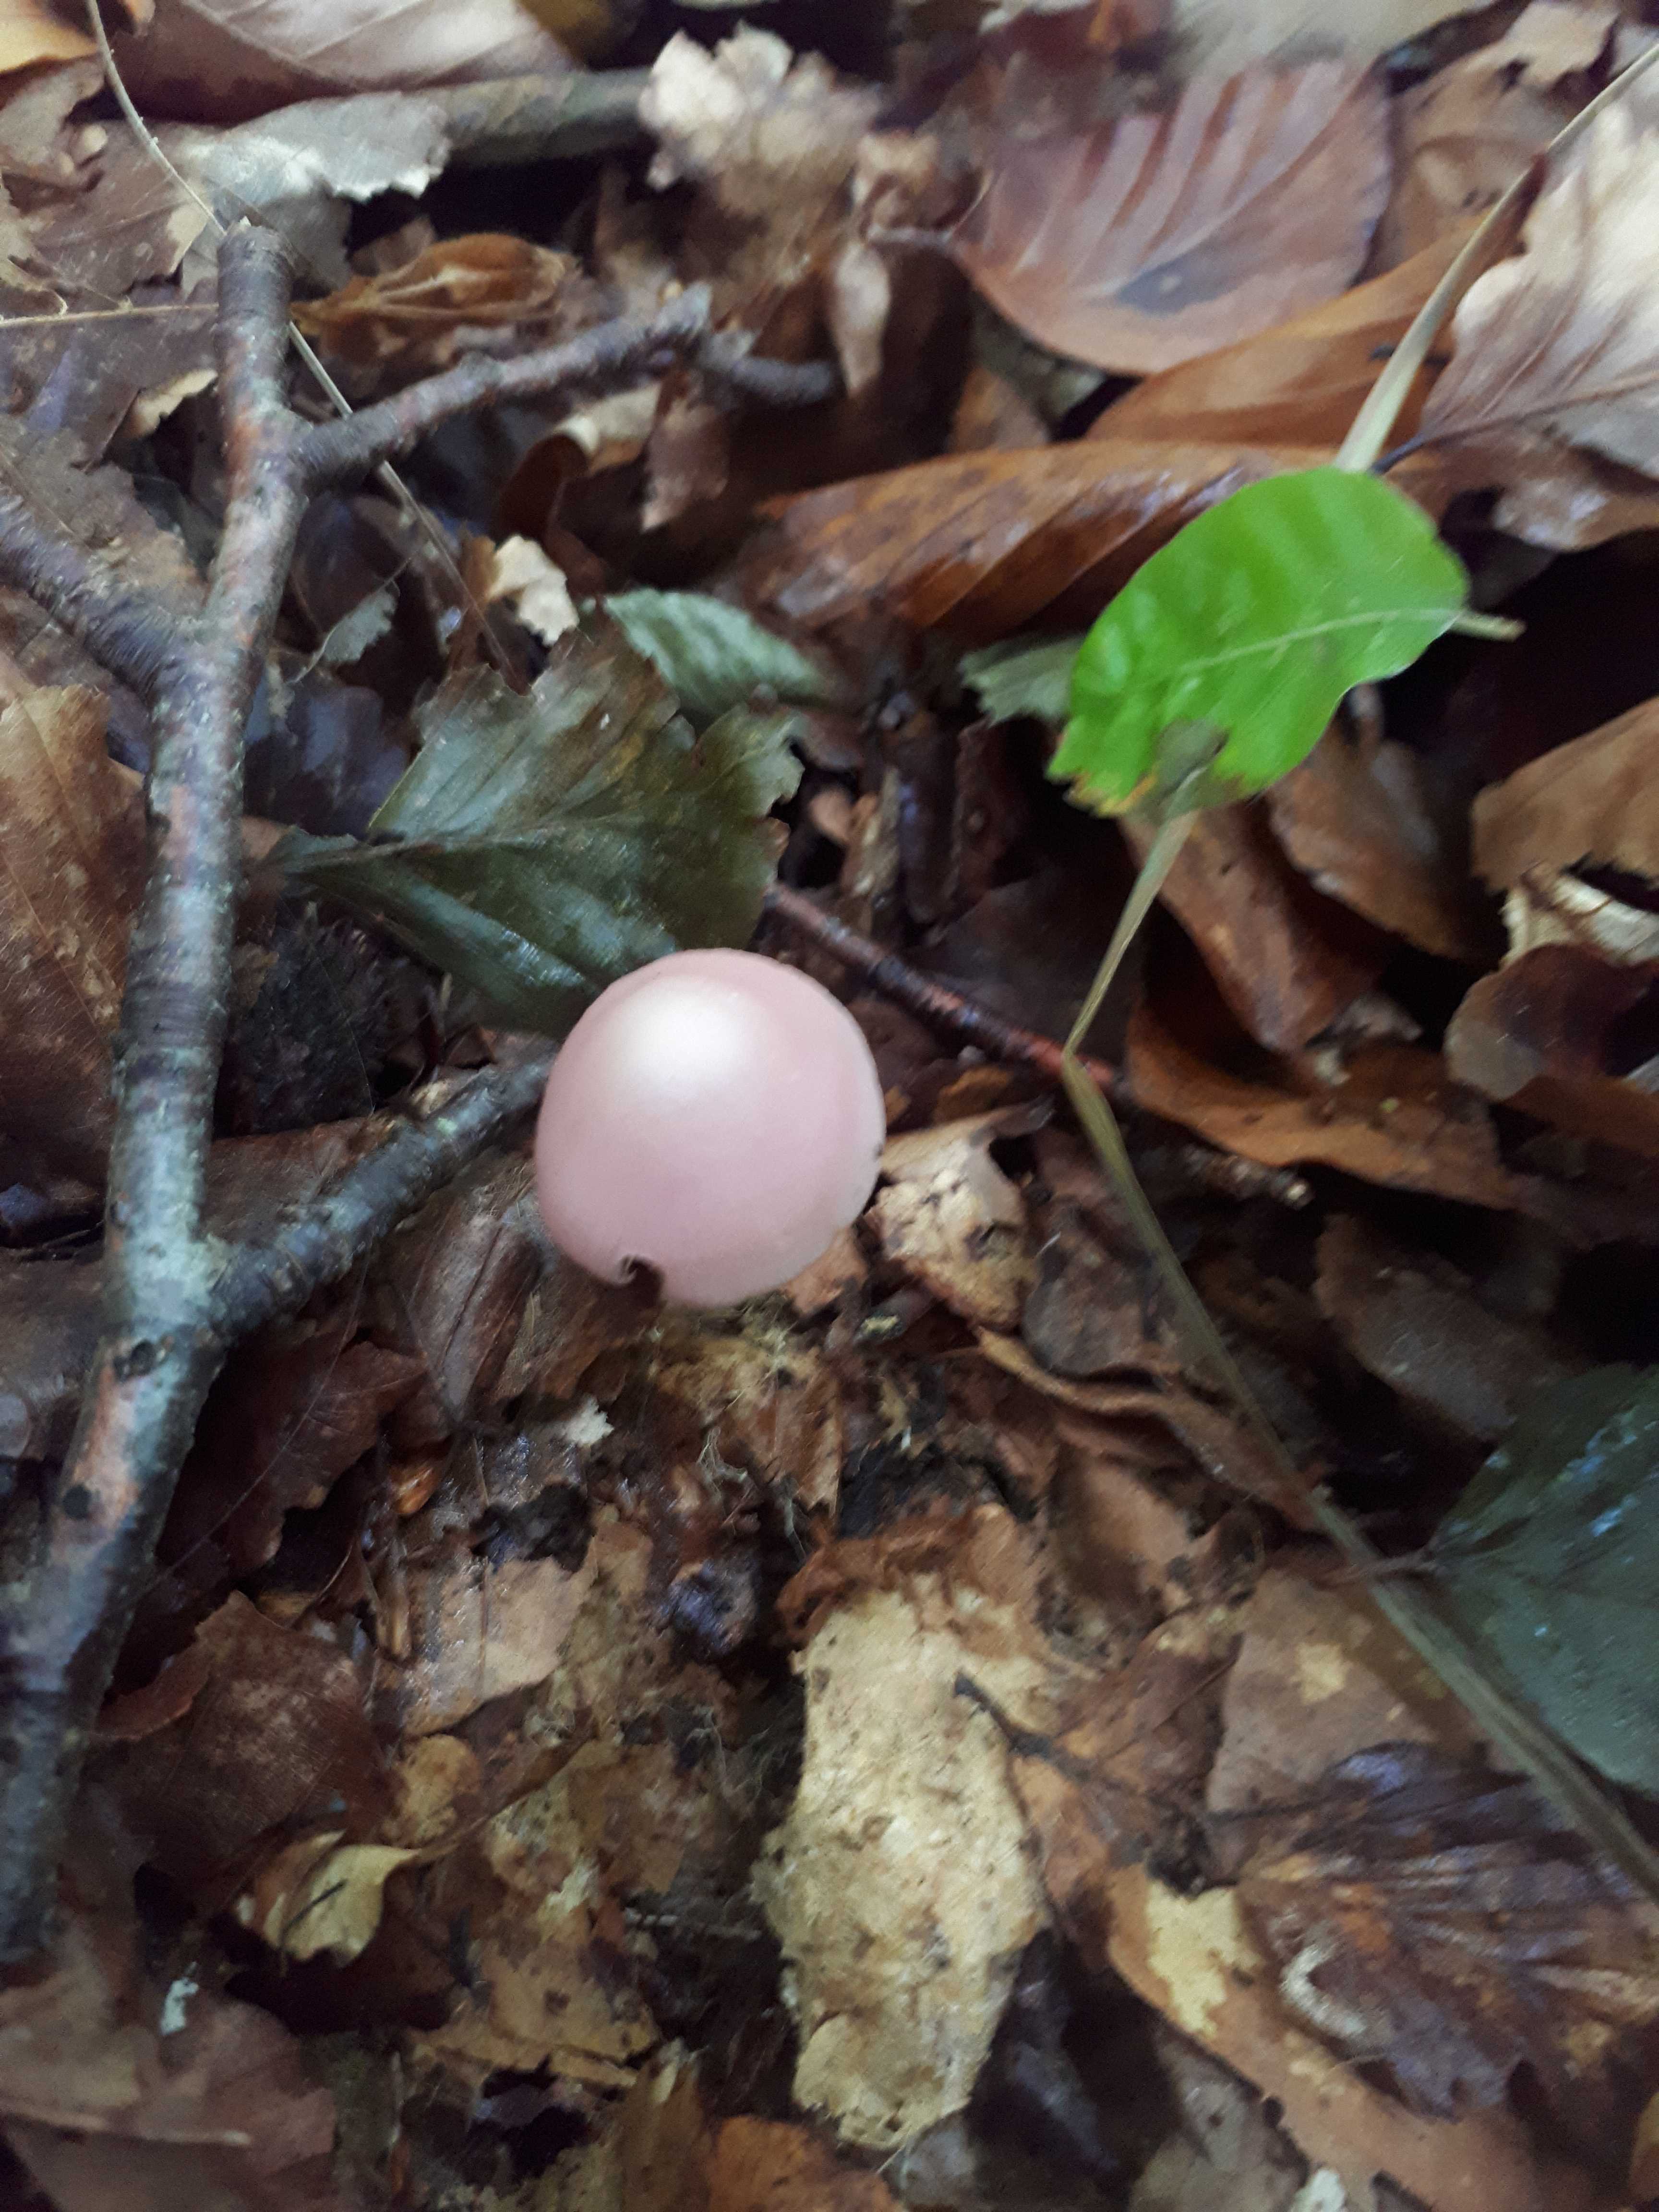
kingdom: Fungi
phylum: Basidiomycota
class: Agaricomycetes
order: Agaricales
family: Mycenaceae
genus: Mycena
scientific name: Mycena rosea
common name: rosa huesvamp
